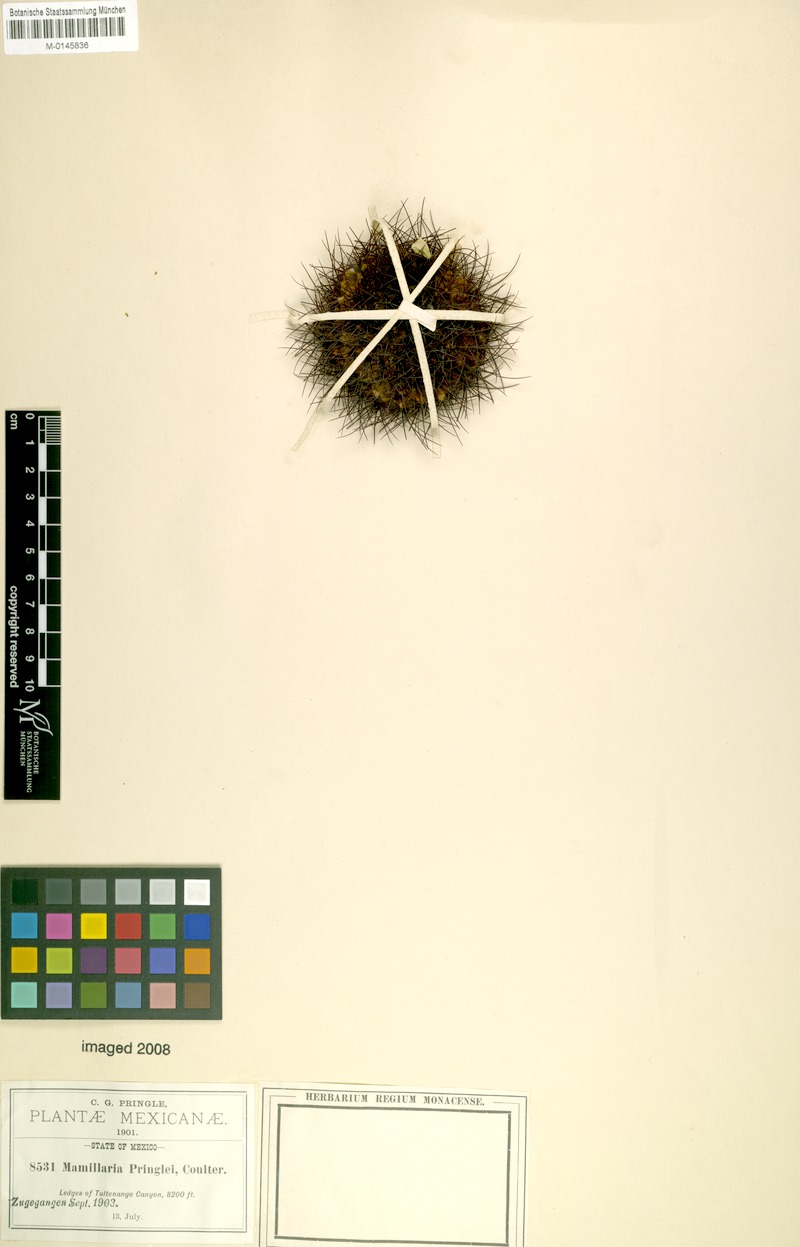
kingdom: Plantae
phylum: Tracheophyta
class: Magnoliopsida
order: Caryophyllales
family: Cactaceae
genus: Mammillaria
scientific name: Mammillaria pringlei
